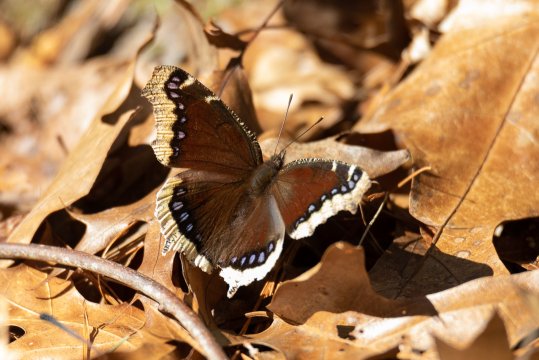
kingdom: Animalia
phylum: Arthropoda
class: Insecta
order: Lepidoptera
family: Nymphalidae
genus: Nymphalis
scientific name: Nymphalis antiopa
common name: Mourning Cloak
